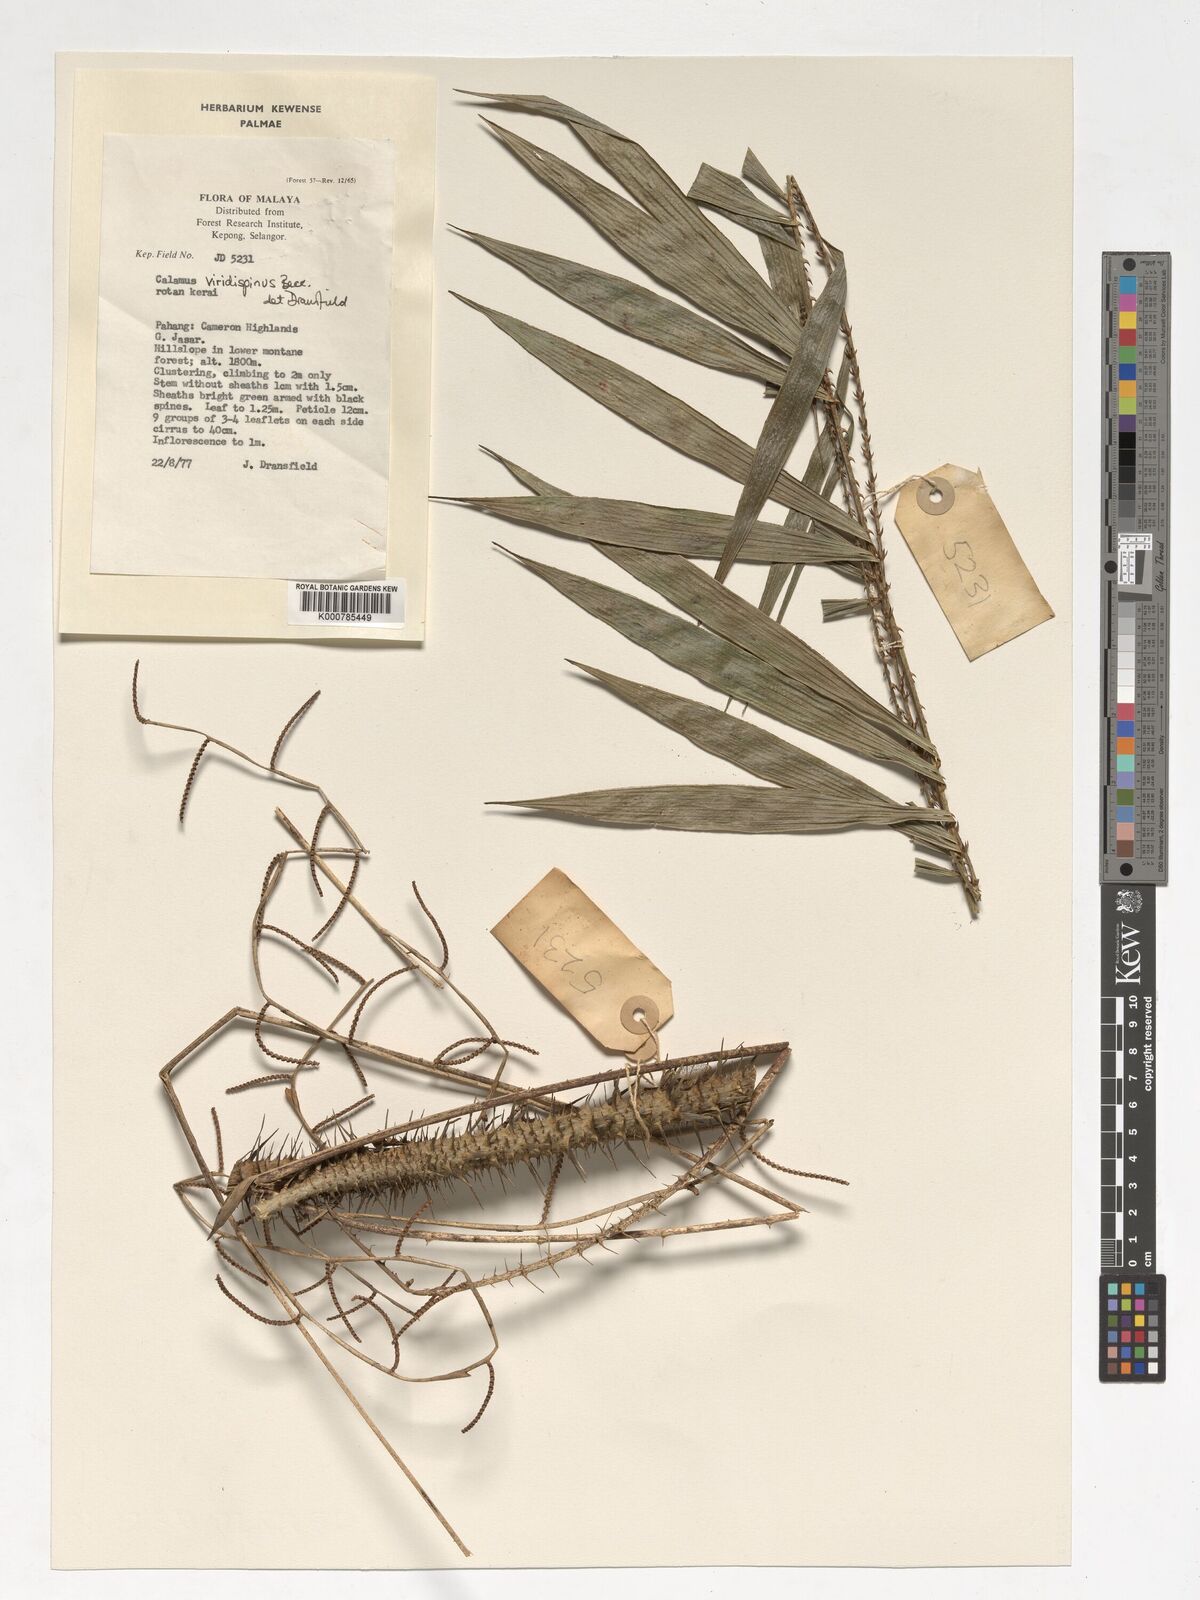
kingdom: Plantae
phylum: Tracheophyta
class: Liliopsida
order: Arecales
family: Arecaceae
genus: Calamus
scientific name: Calamus helferianus
